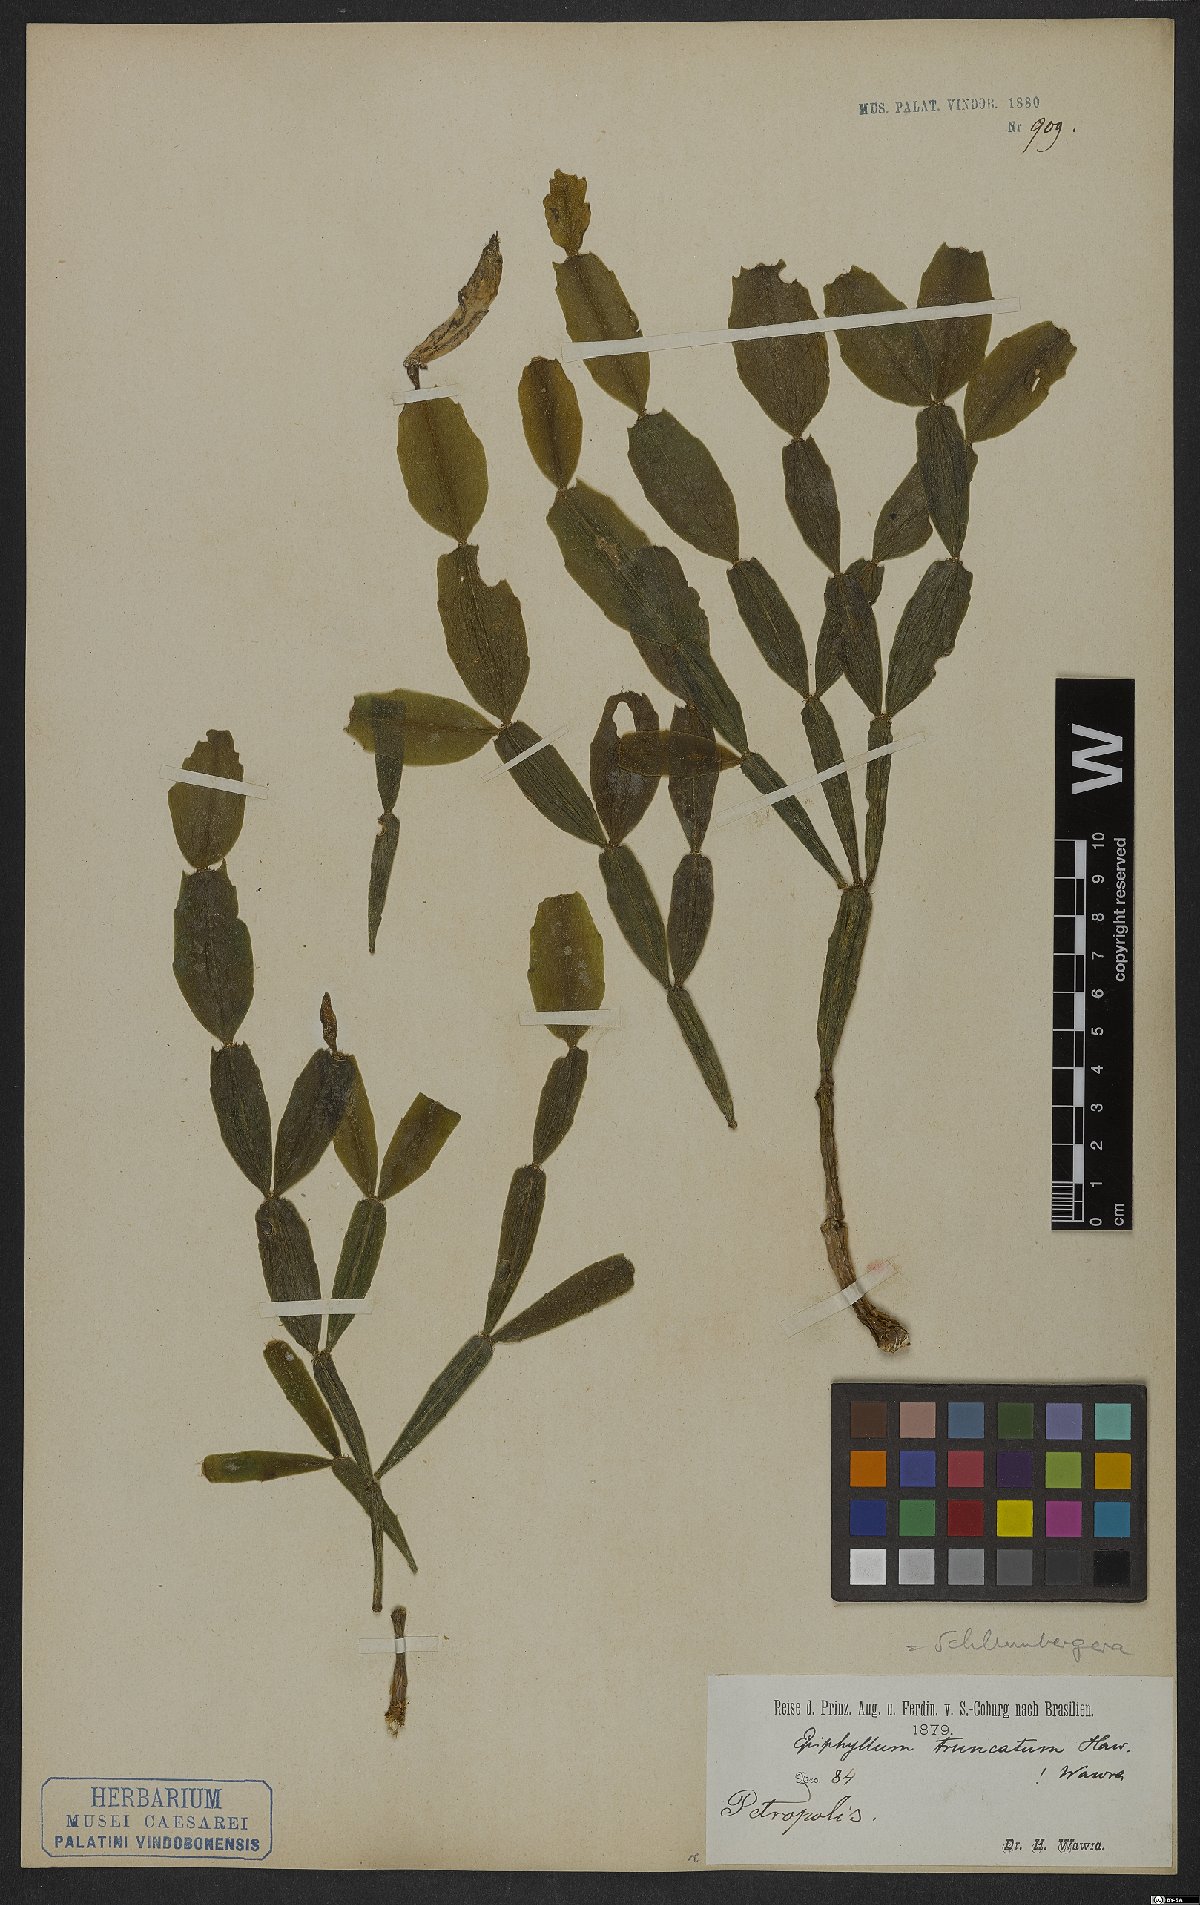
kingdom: Plantae
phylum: Tracheophyta
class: Magnoliopsida
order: Caryophyllales
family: Cactaceae
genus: Schlumbergera
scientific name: Schlumbergera truncata
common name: Thanksgiving cactus
